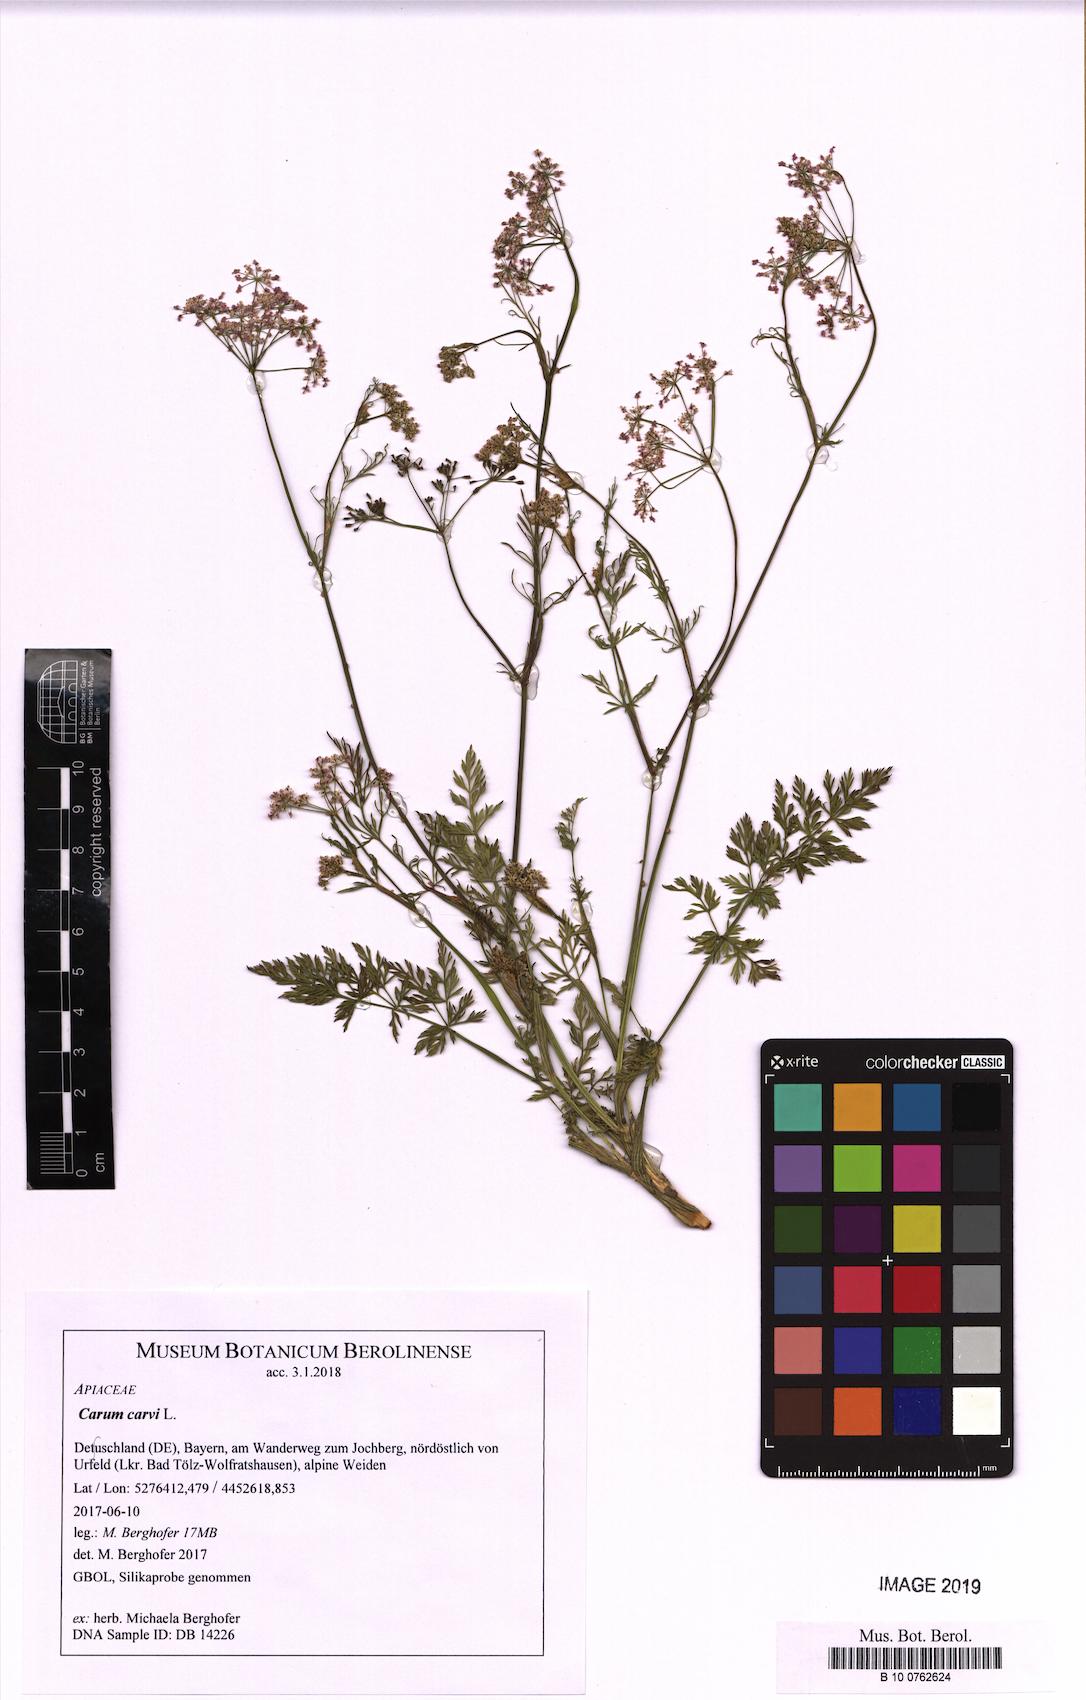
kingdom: Plantae
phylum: Tracheophyta
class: Magnoliopsida
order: Apiales
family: Apiaceae
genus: Carum
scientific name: Carum carvi
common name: Caraway
